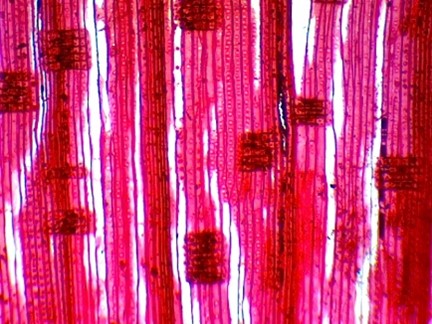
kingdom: Plantae
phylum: Tracheophyta
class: Pinopsida
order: Pinales
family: Cupressaceae
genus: Fitzroya
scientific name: Fitzroya cupressoides
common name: Alerce
